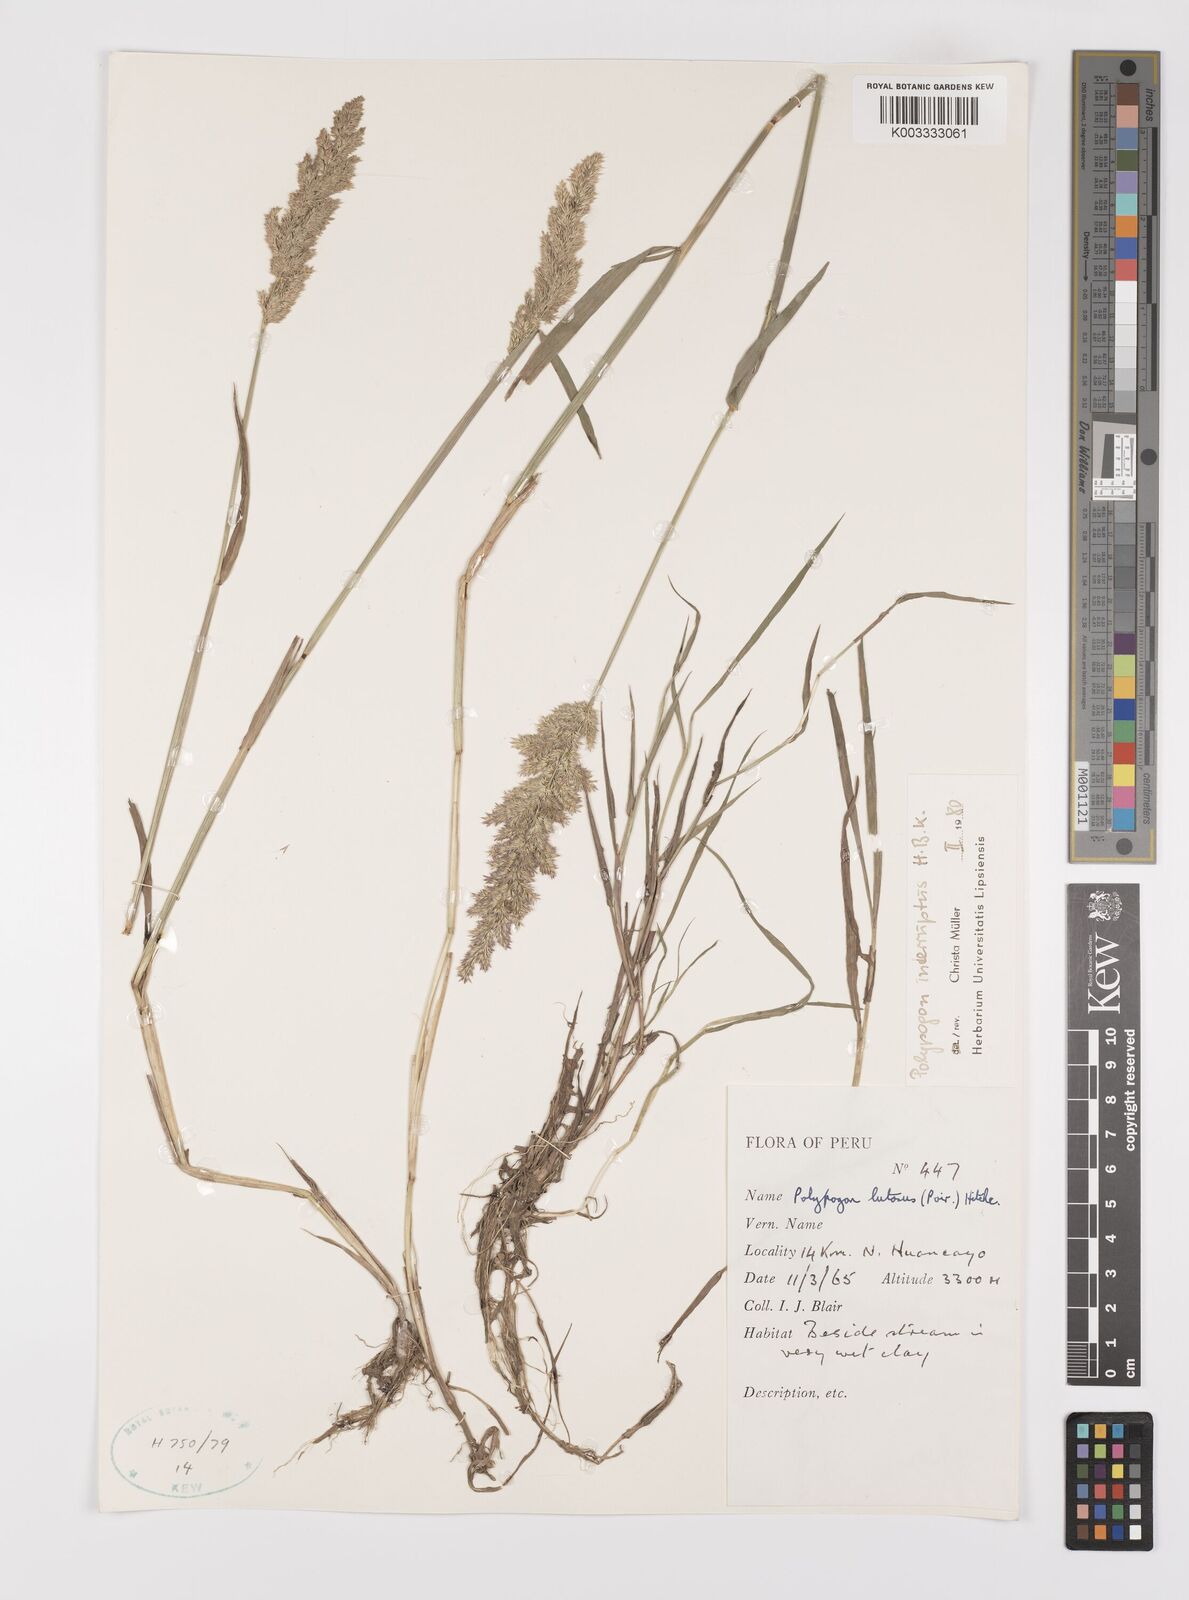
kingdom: Plantae
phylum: Tracheophyta
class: Liliopsida
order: Poales
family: Poaceae
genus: Polypogon
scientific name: Polypogon interruptus
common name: Ditch polypogon
